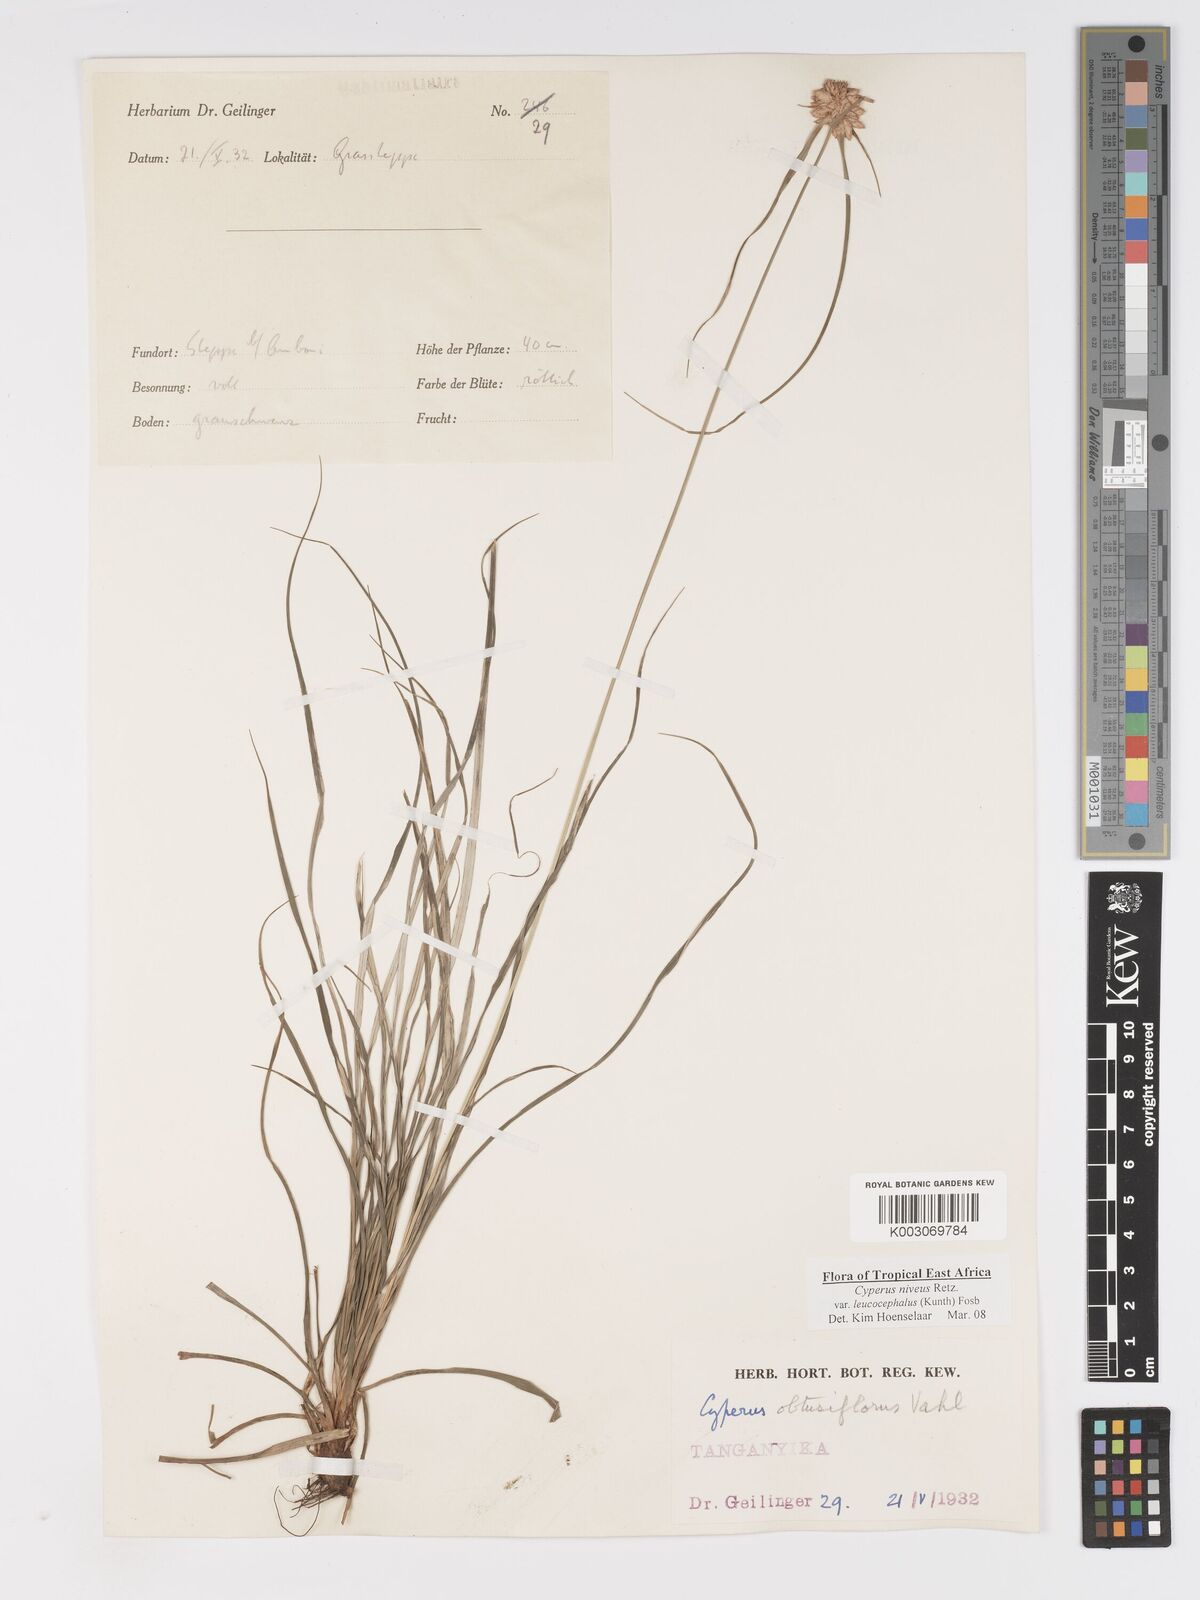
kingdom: Plantae
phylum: Tracheophyta
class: Liliopsida
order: Poales
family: Cyperaceae
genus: Cyperus
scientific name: Cyperus niveus
